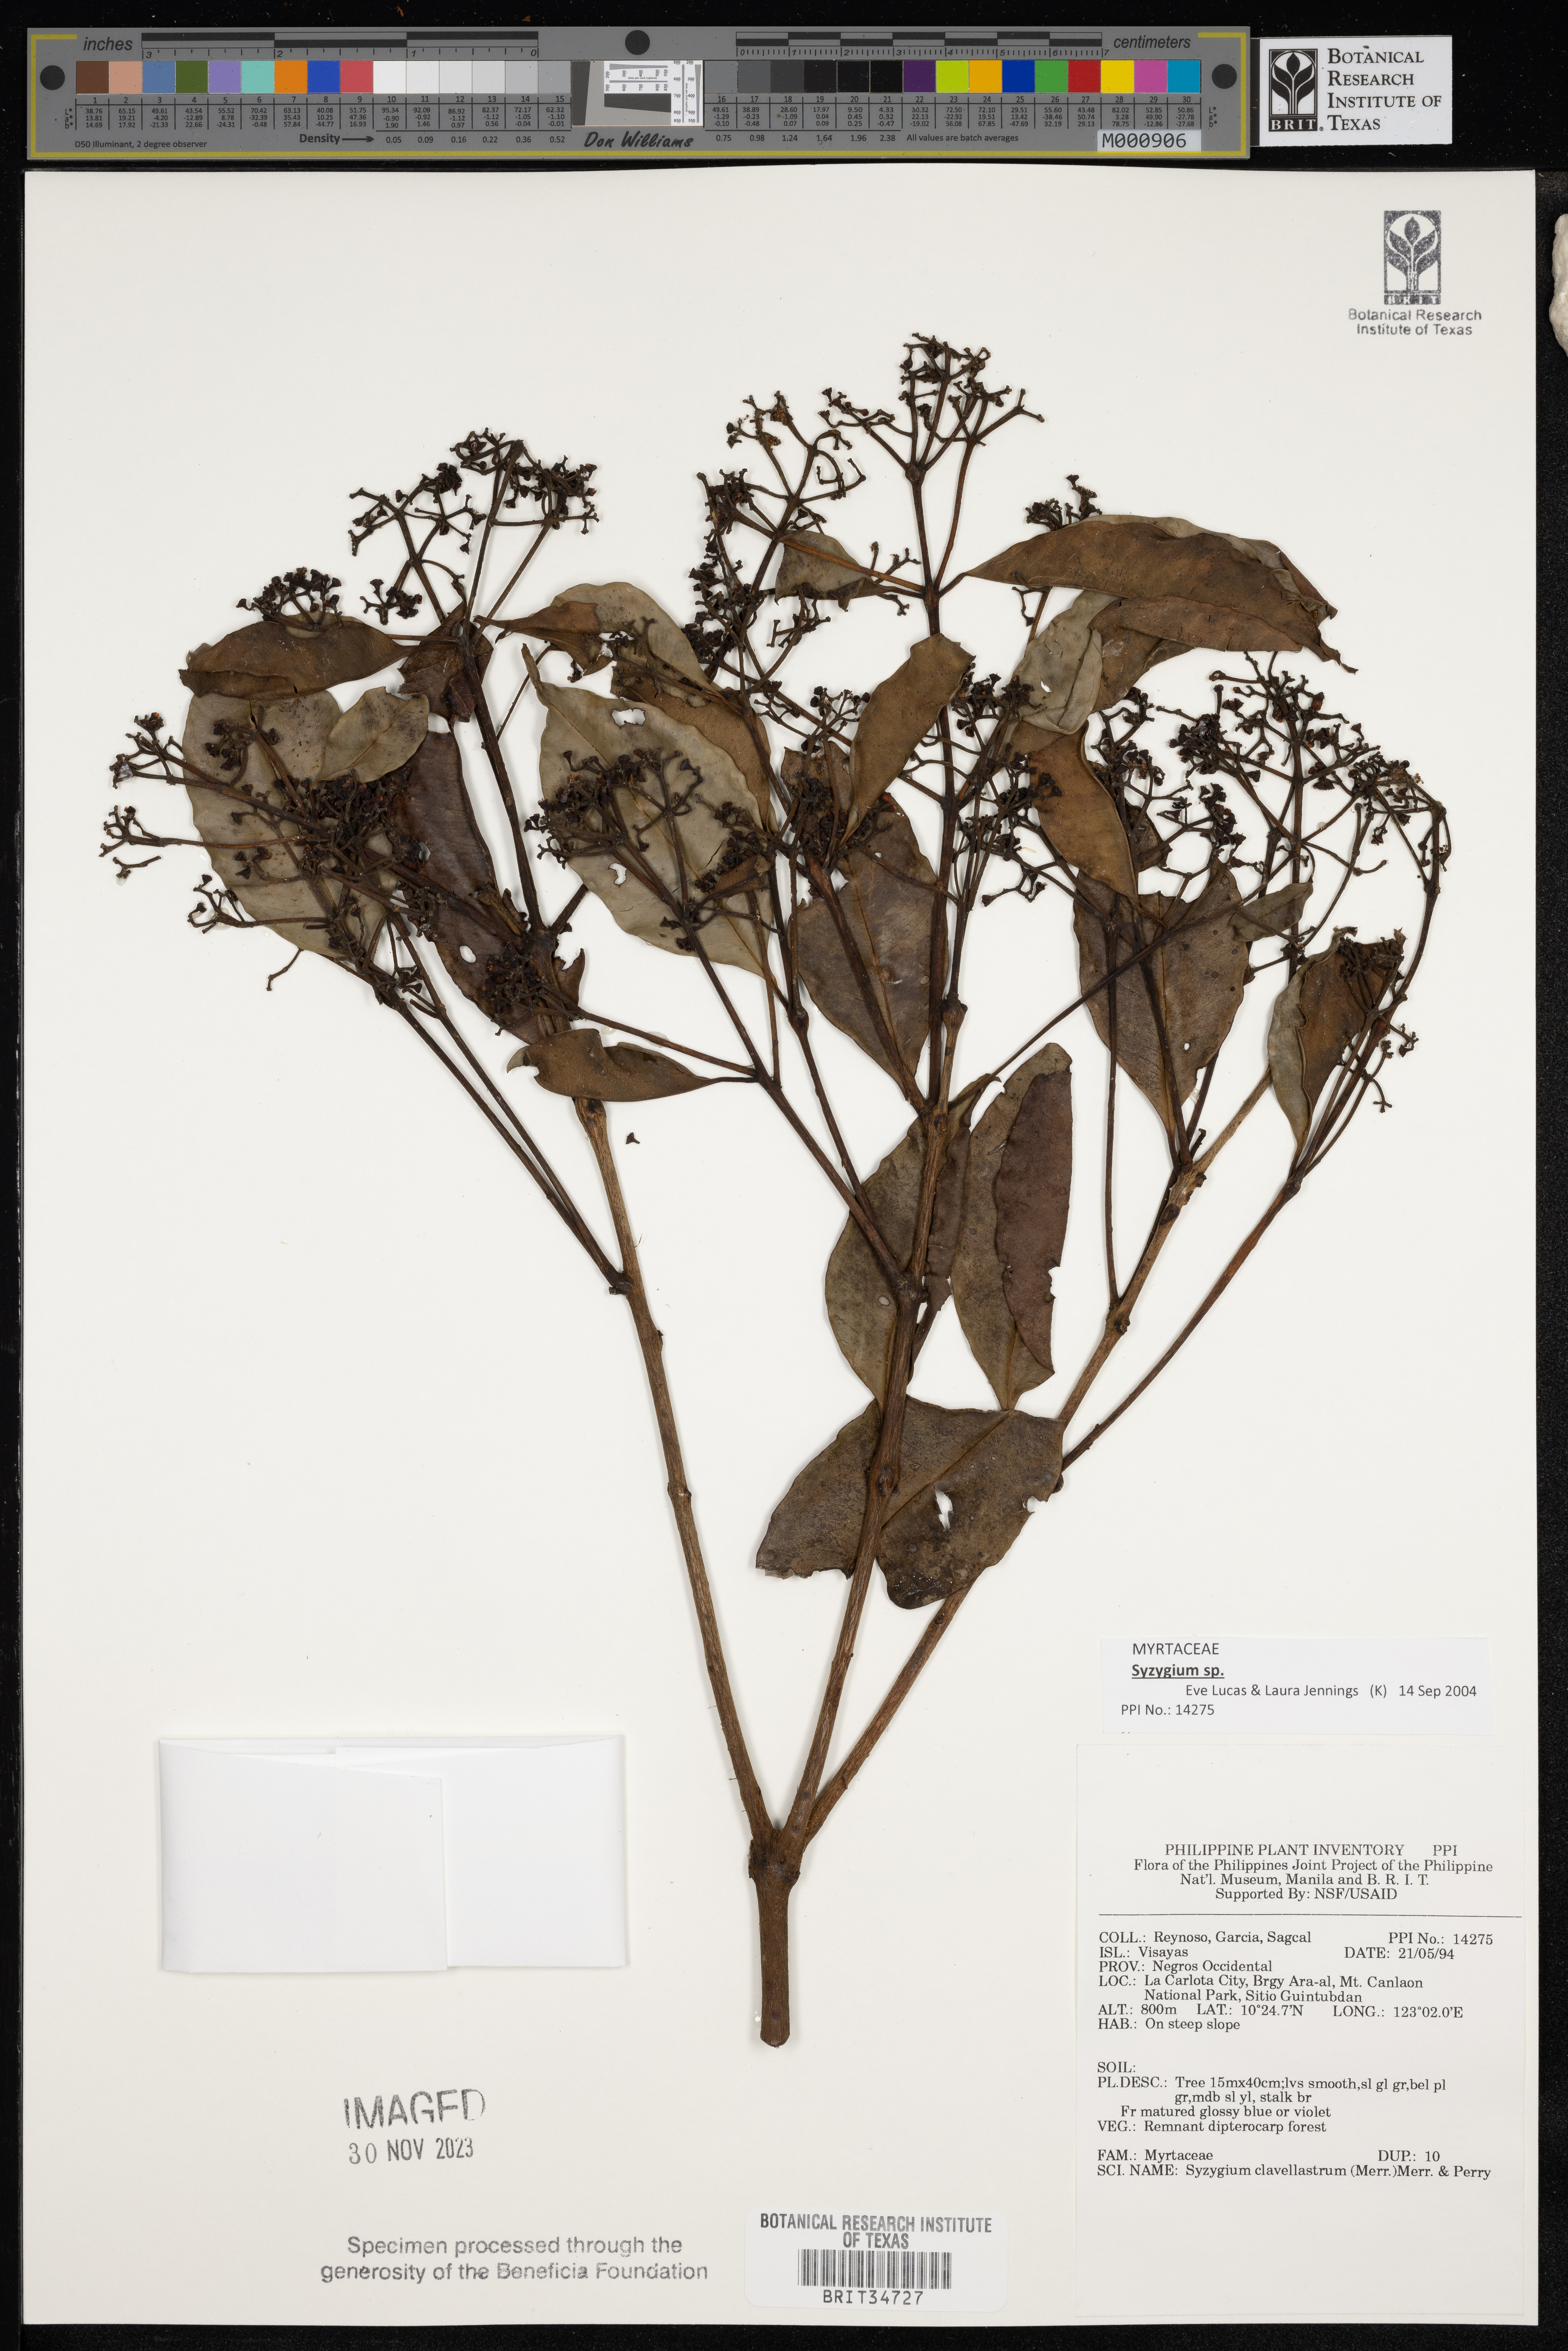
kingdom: Plantae
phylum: Tracheophyta
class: Magnoliopsida
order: Myrtales
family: Myrtaceae
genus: Syzygium
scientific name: Syzygium clavellatum
